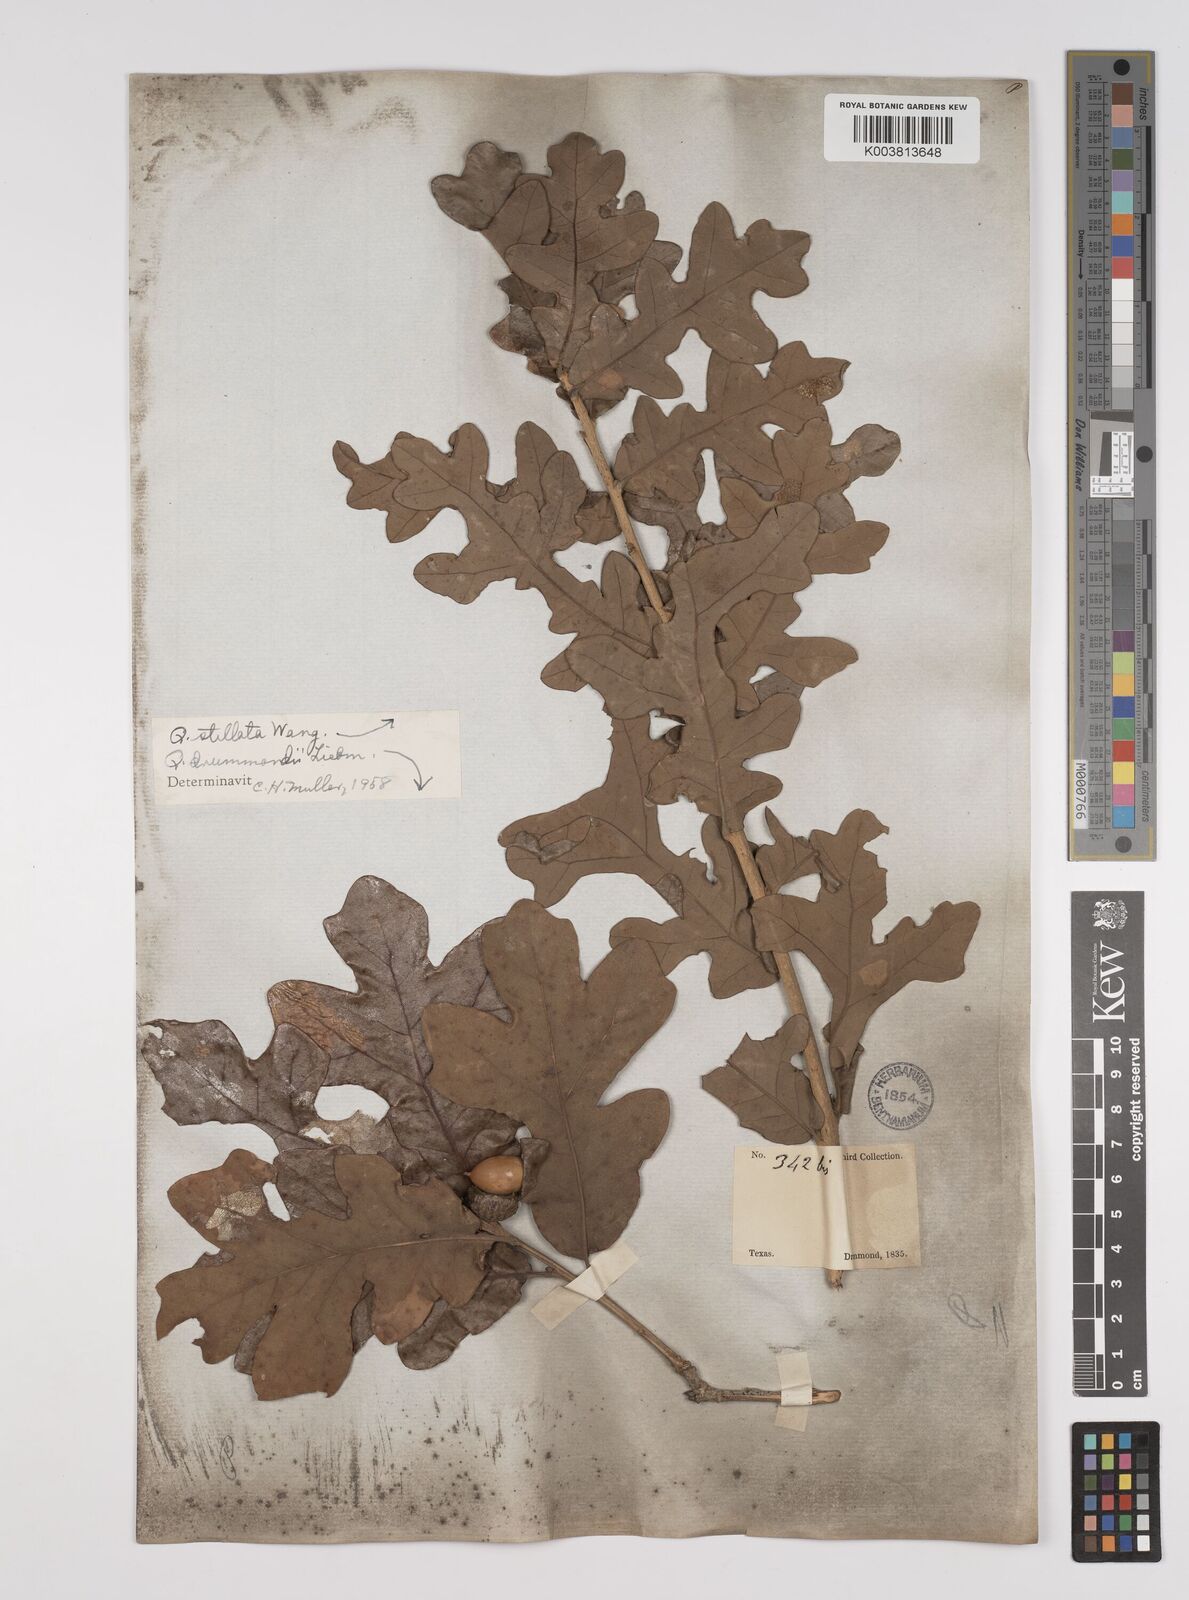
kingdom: Plantae
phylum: Tracheophyta
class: Magnoliopsida
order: Fagales
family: Fagaceae
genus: Quercus
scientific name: Quercus stellata
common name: Post oak
